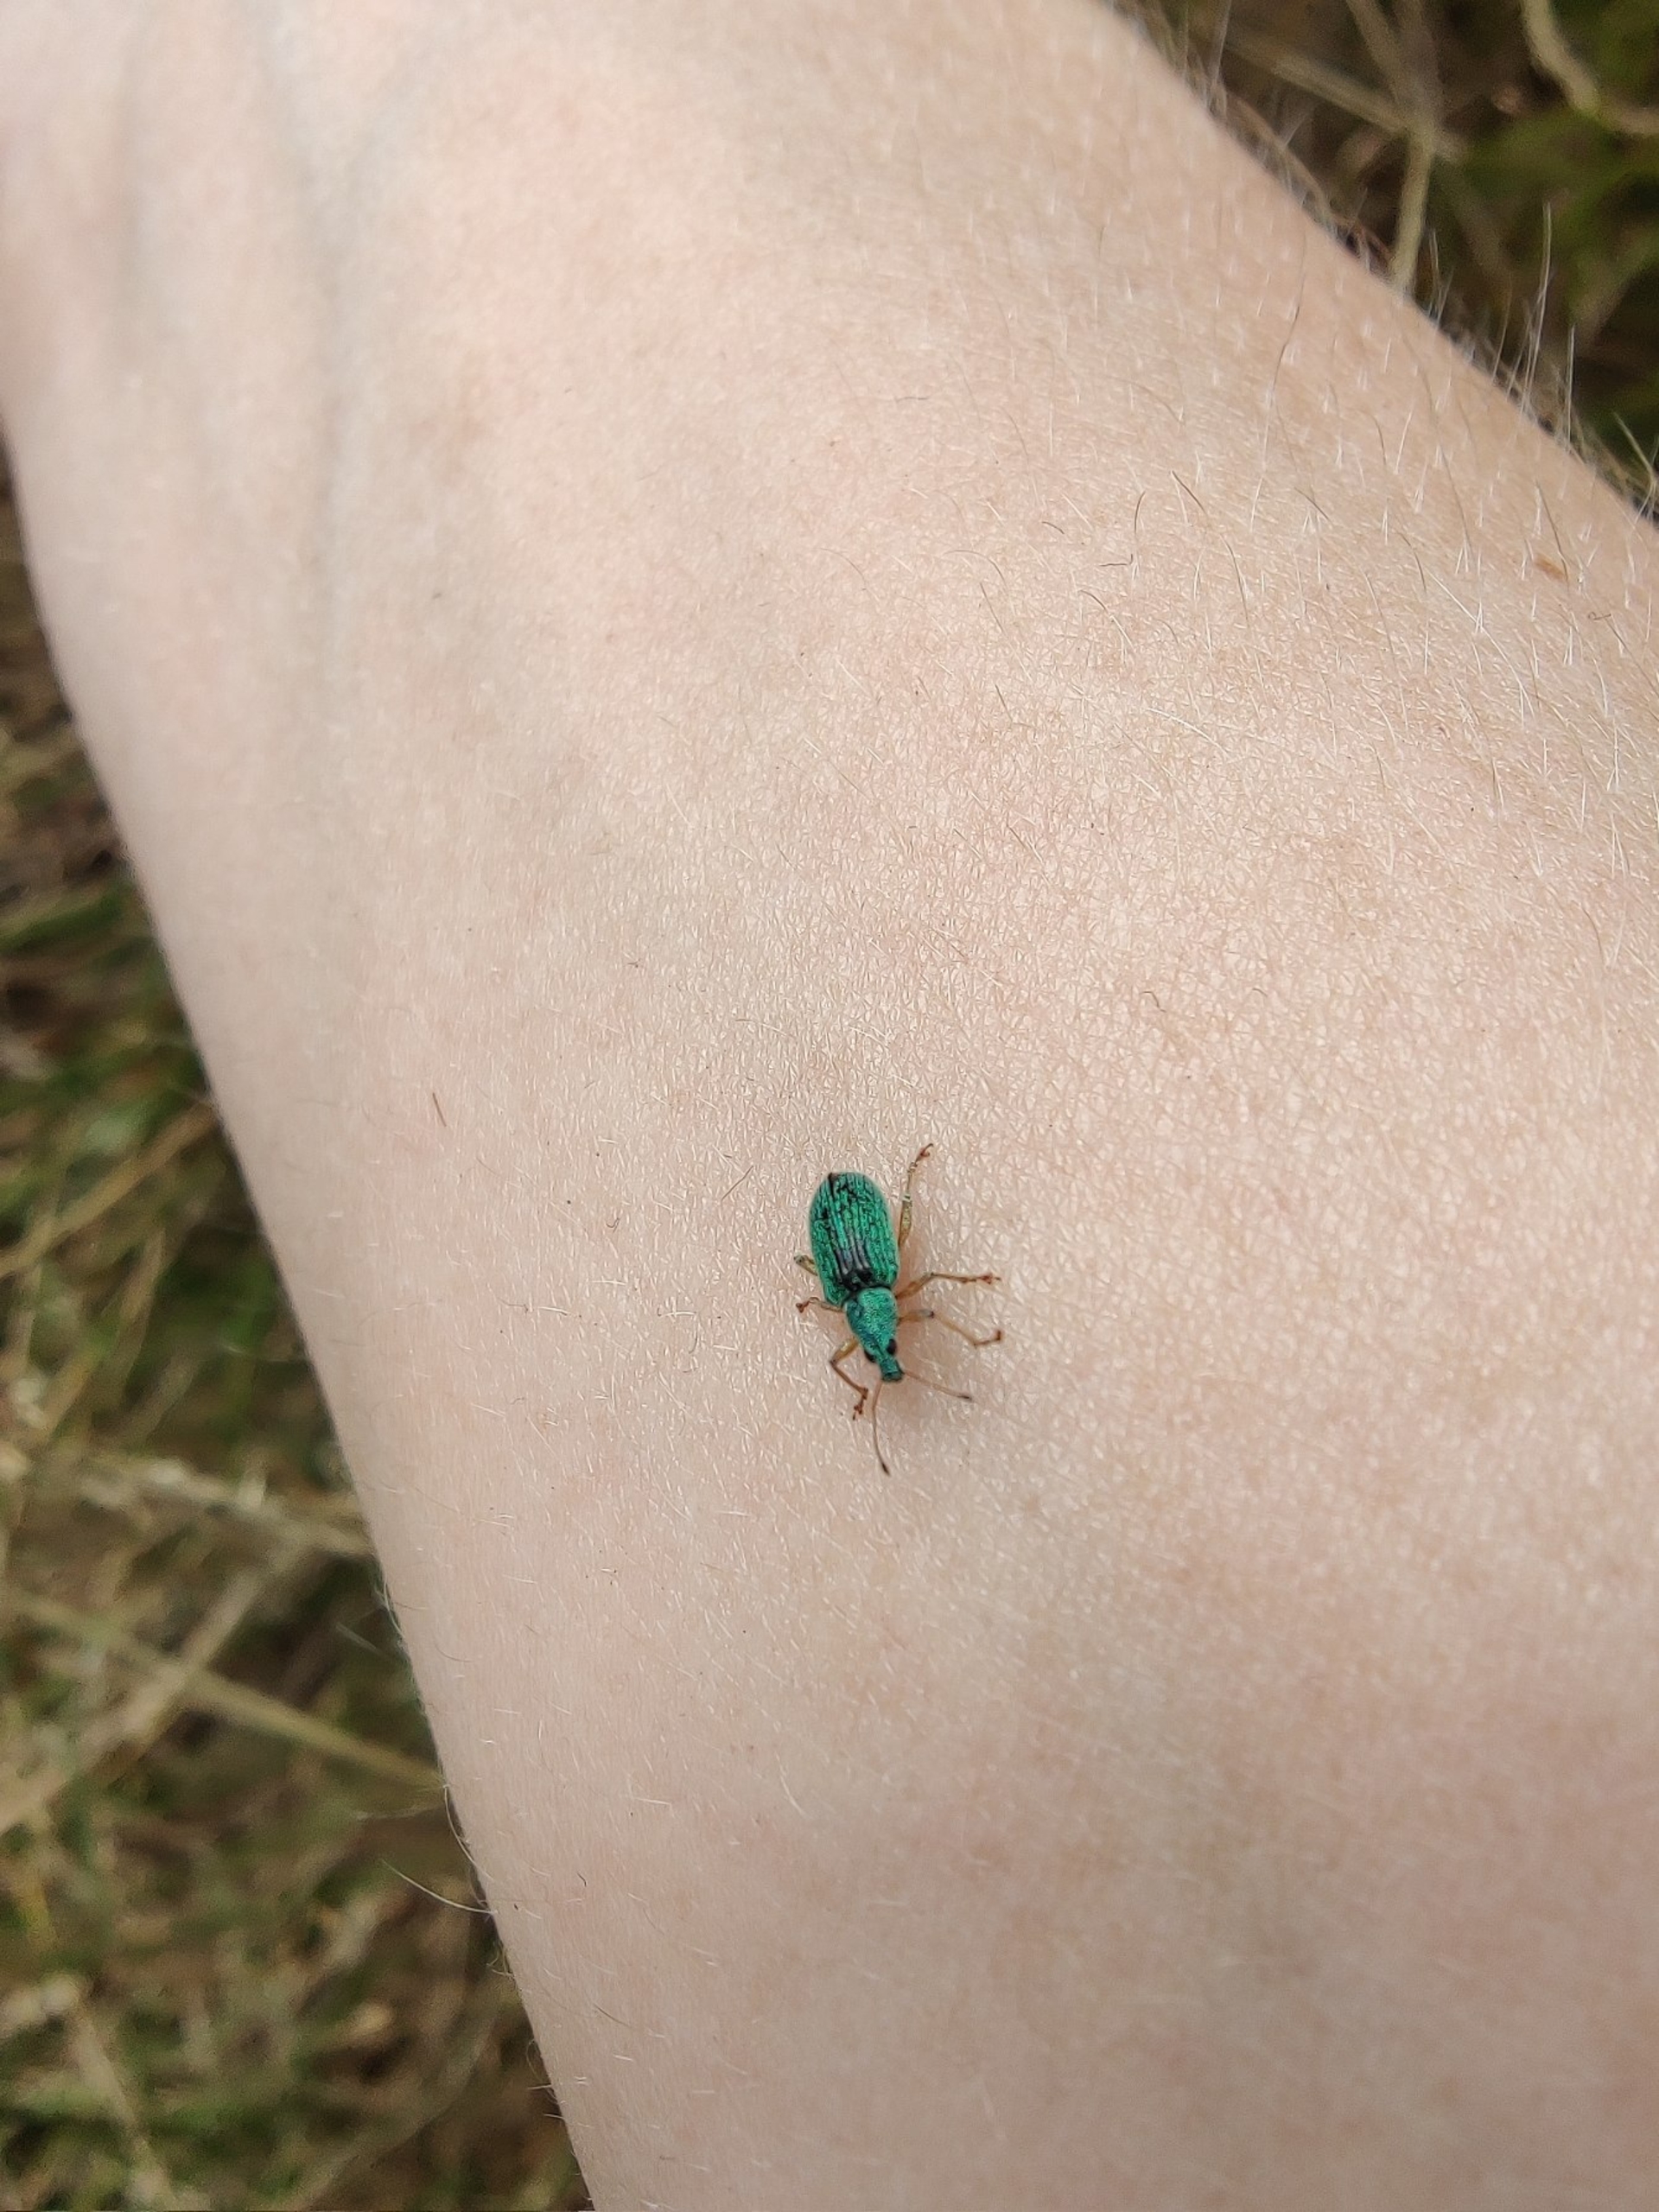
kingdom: Animalia
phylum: Arthropoda
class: Insecta
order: Coleoptera
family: Curculionidae
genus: Polydrusus
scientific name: Polydrusus formosus
